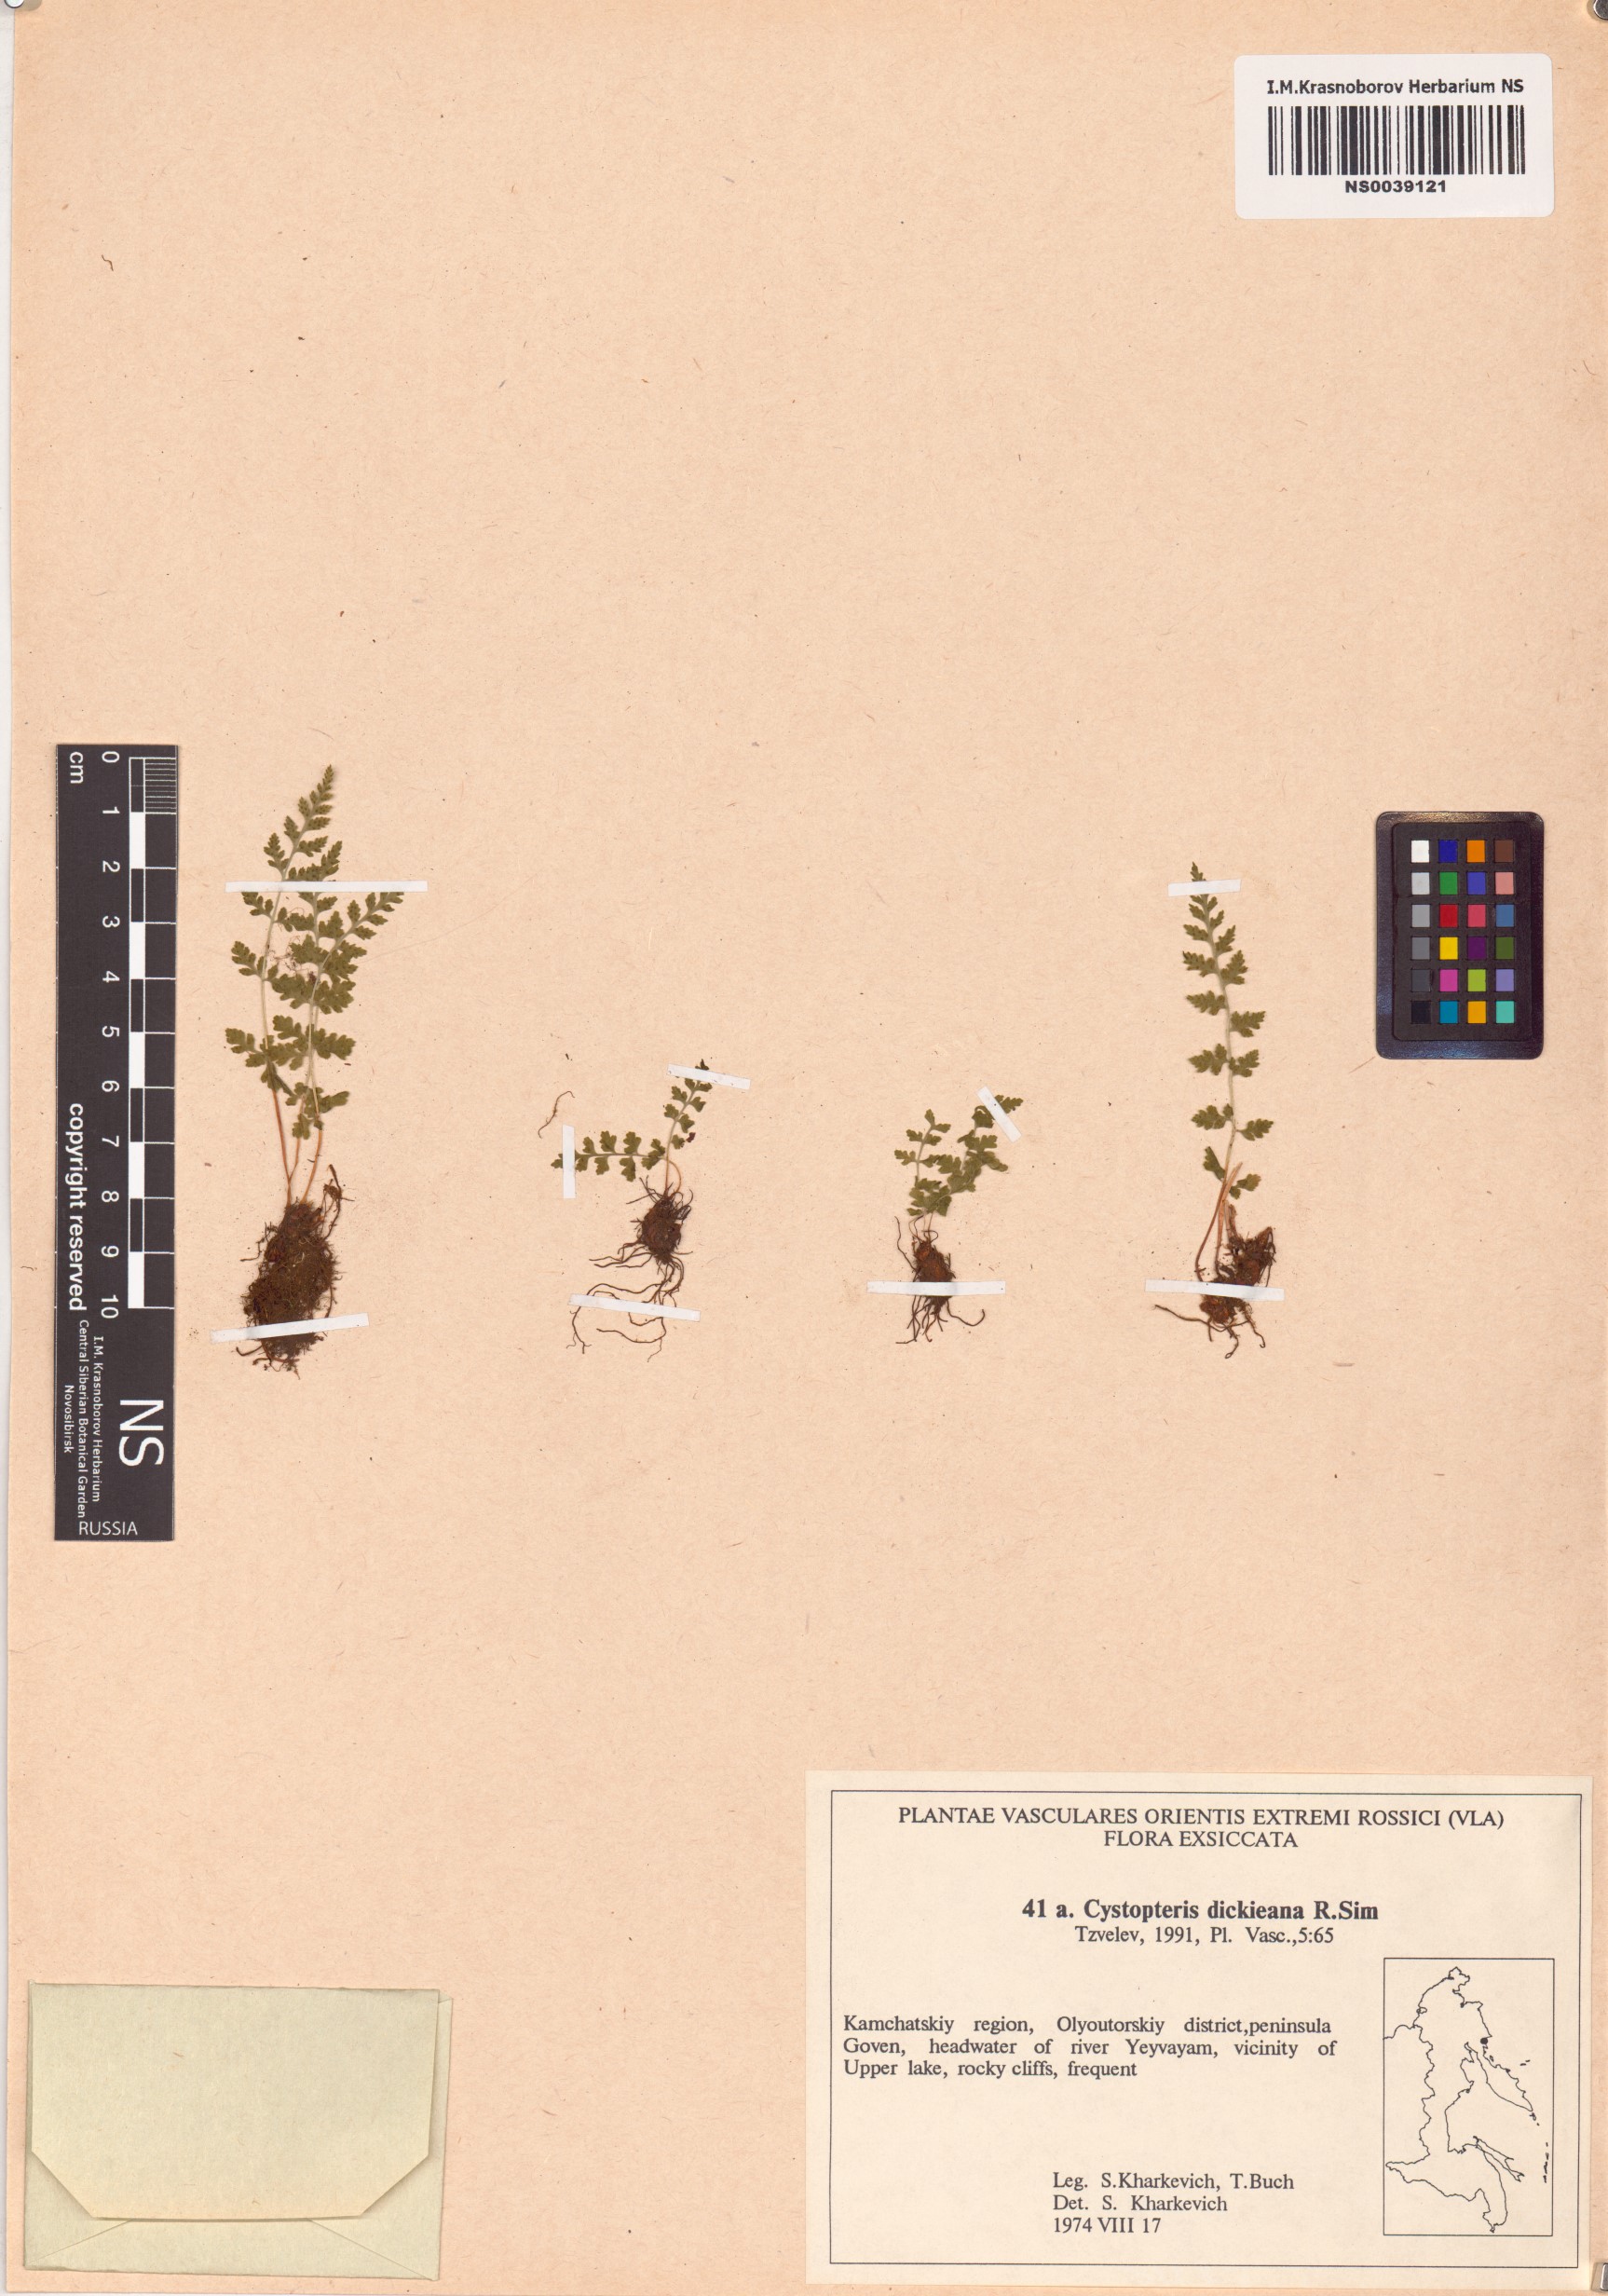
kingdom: Plantae
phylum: Tracheophyta
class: Polypodiopsida
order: Polypodiales
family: Cystopteridaceae
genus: Cystopteris
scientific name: Cystopteris dickieana
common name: Dickie's bladder-fern
